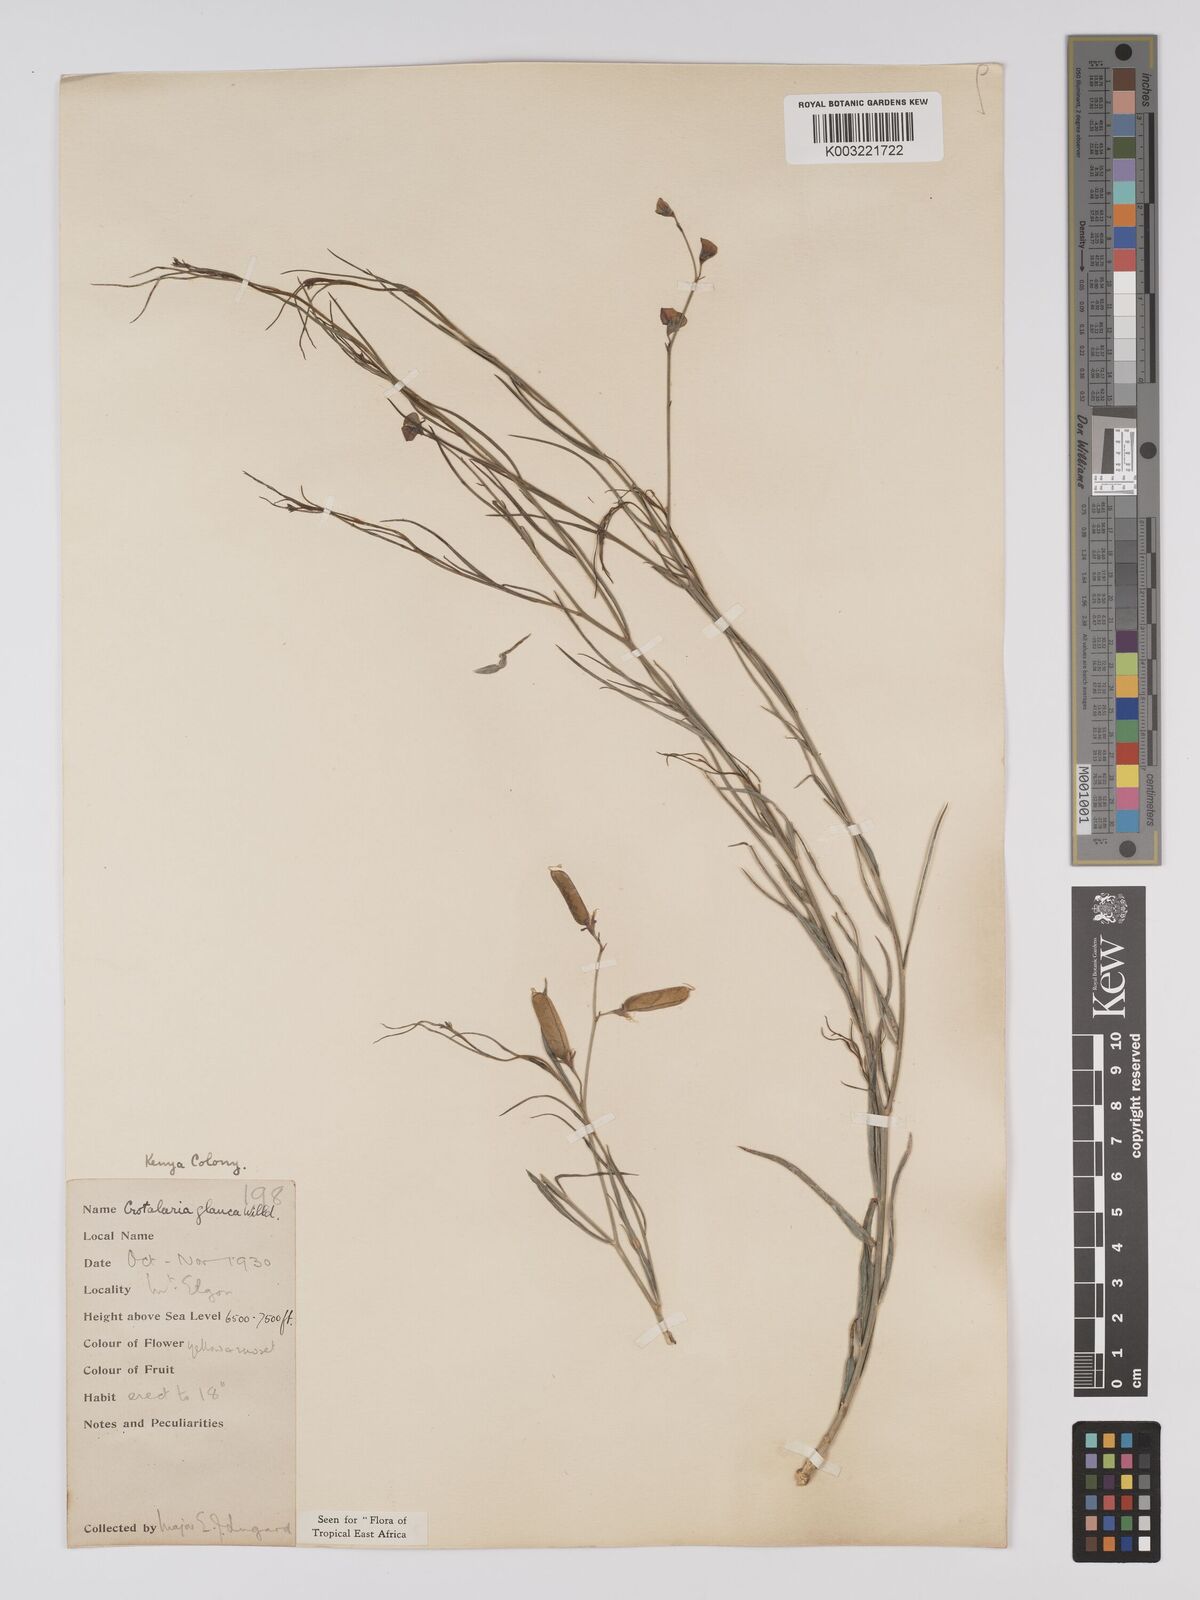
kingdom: Plantae
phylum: Tracheophyta
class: Magnoliopsida
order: Fabales
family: Fabaceae
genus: Crotalaria
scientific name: Crotalaria glauca
